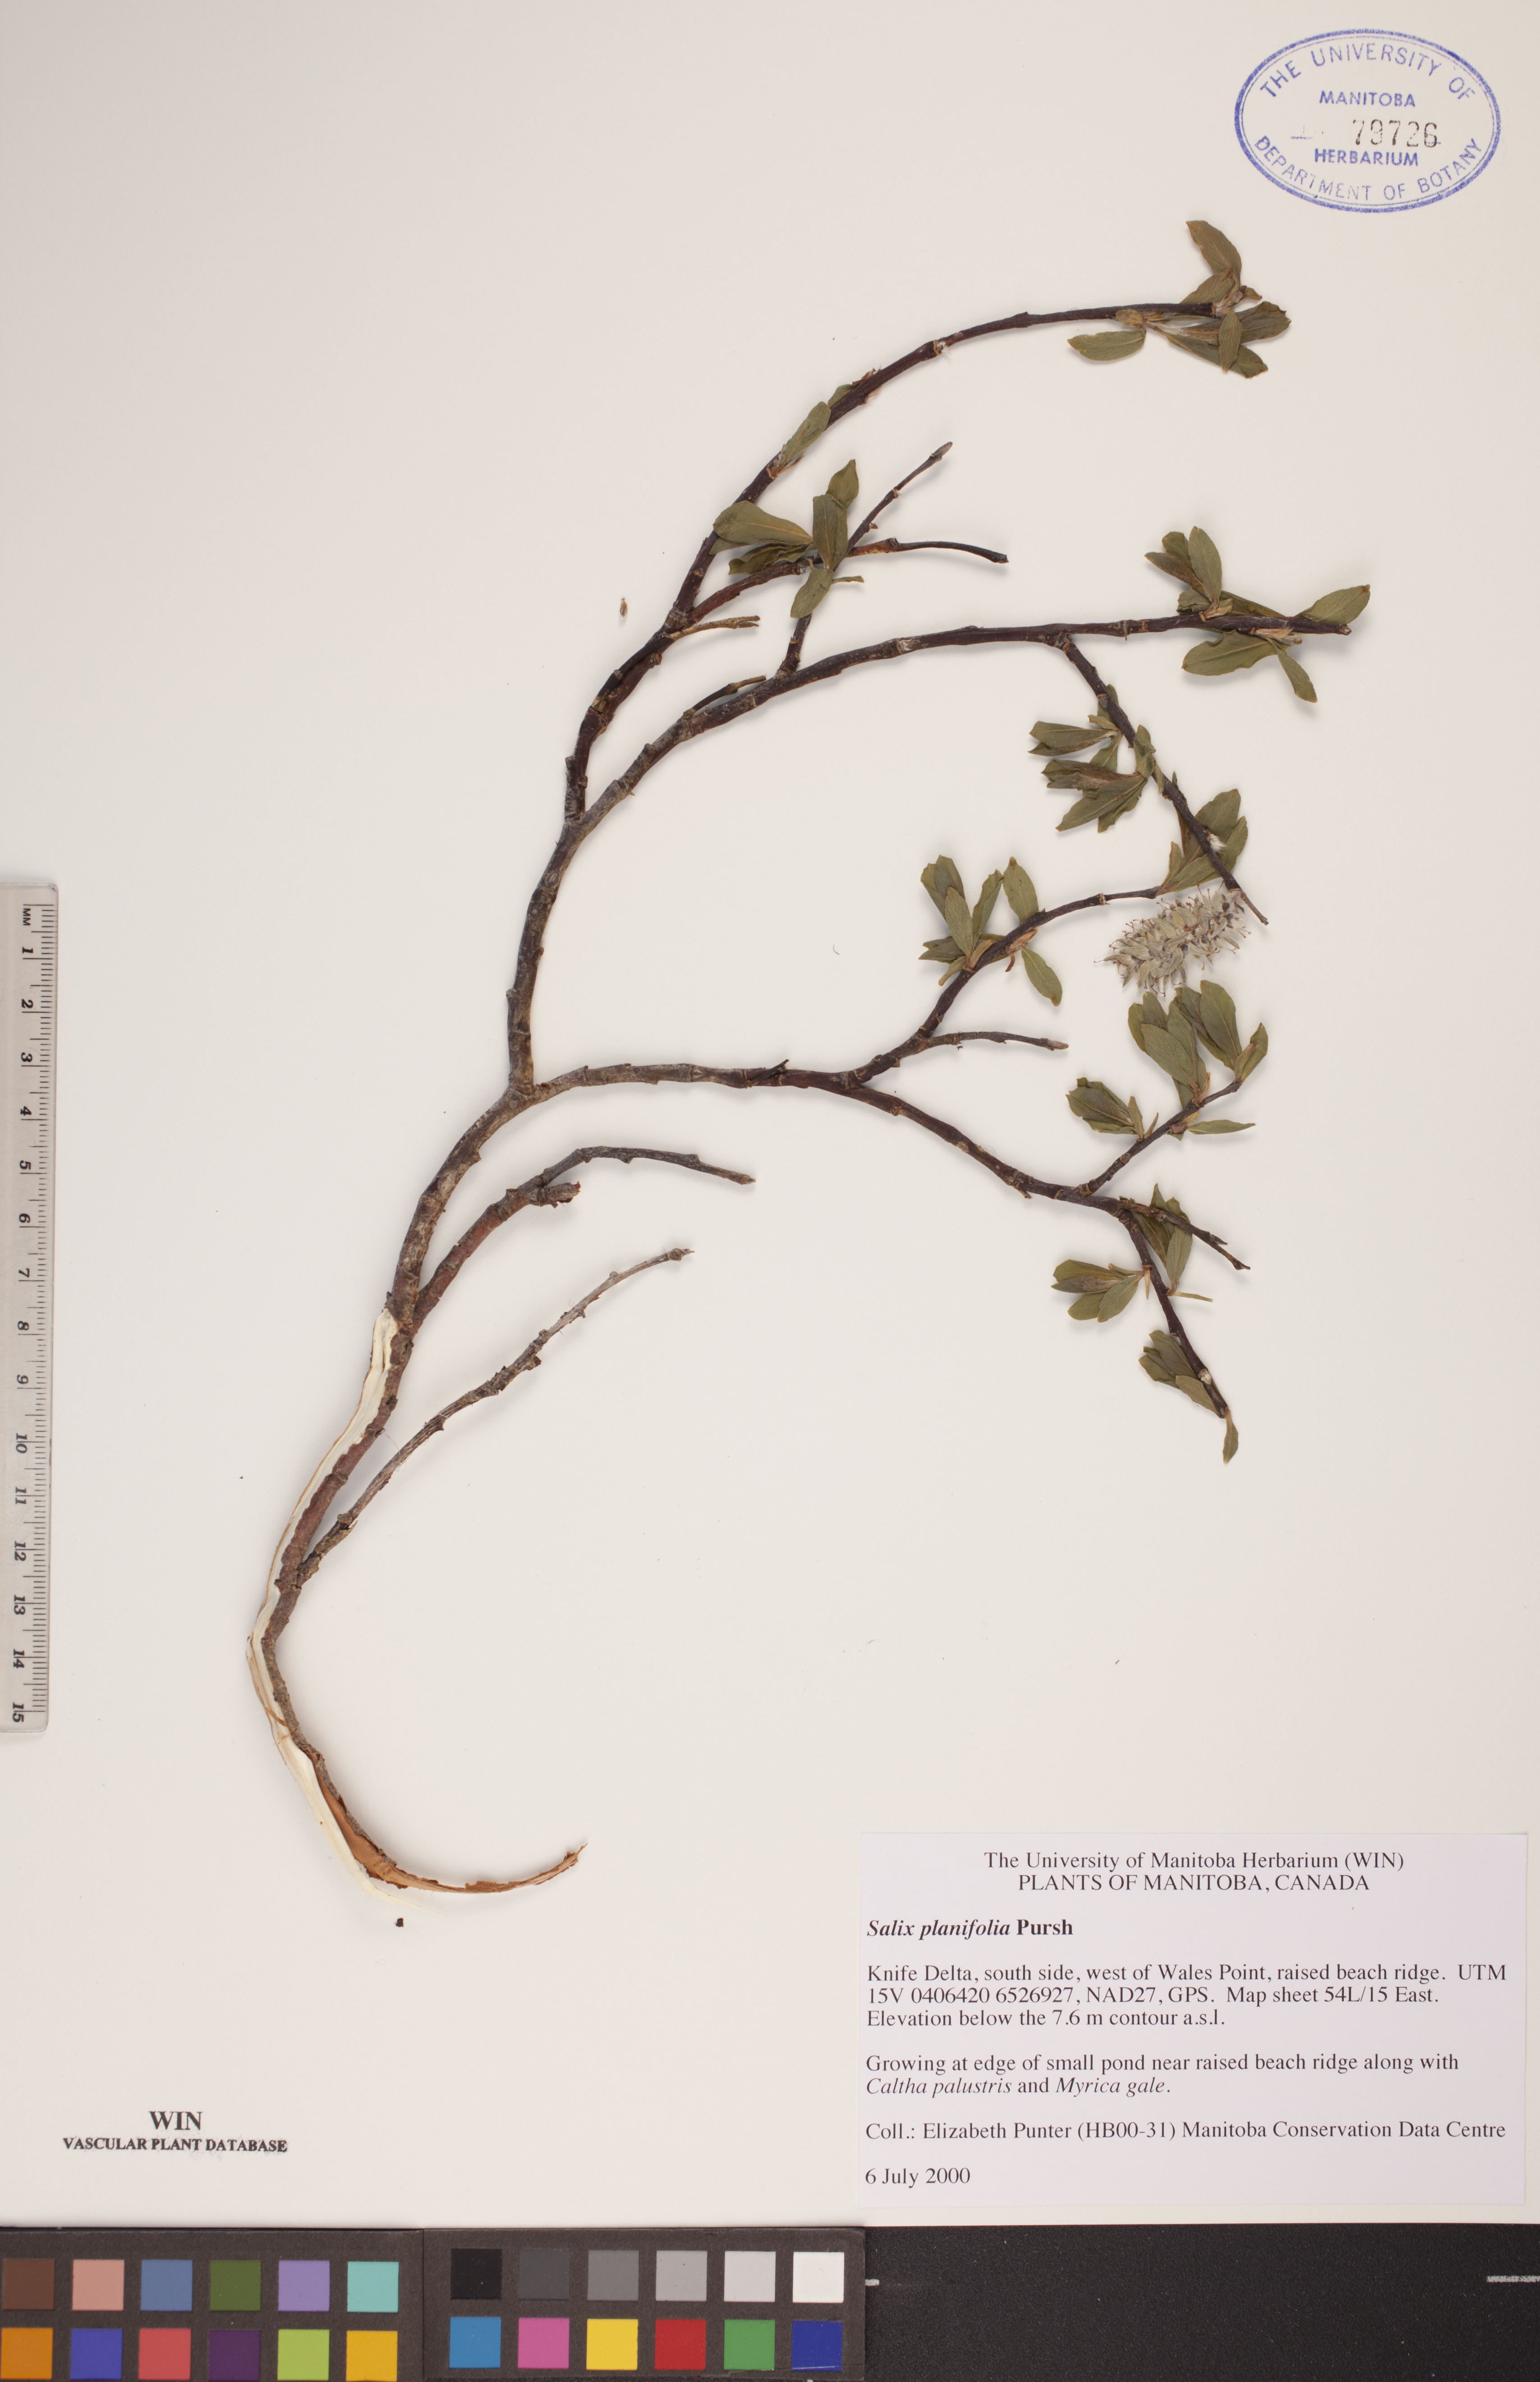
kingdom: Plantae
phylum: Tracheophyta
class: Magnoliopsida
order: Malpighiales
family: Salicaceae
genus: Salix
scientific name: Salix planifolia
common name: Mountain willow
